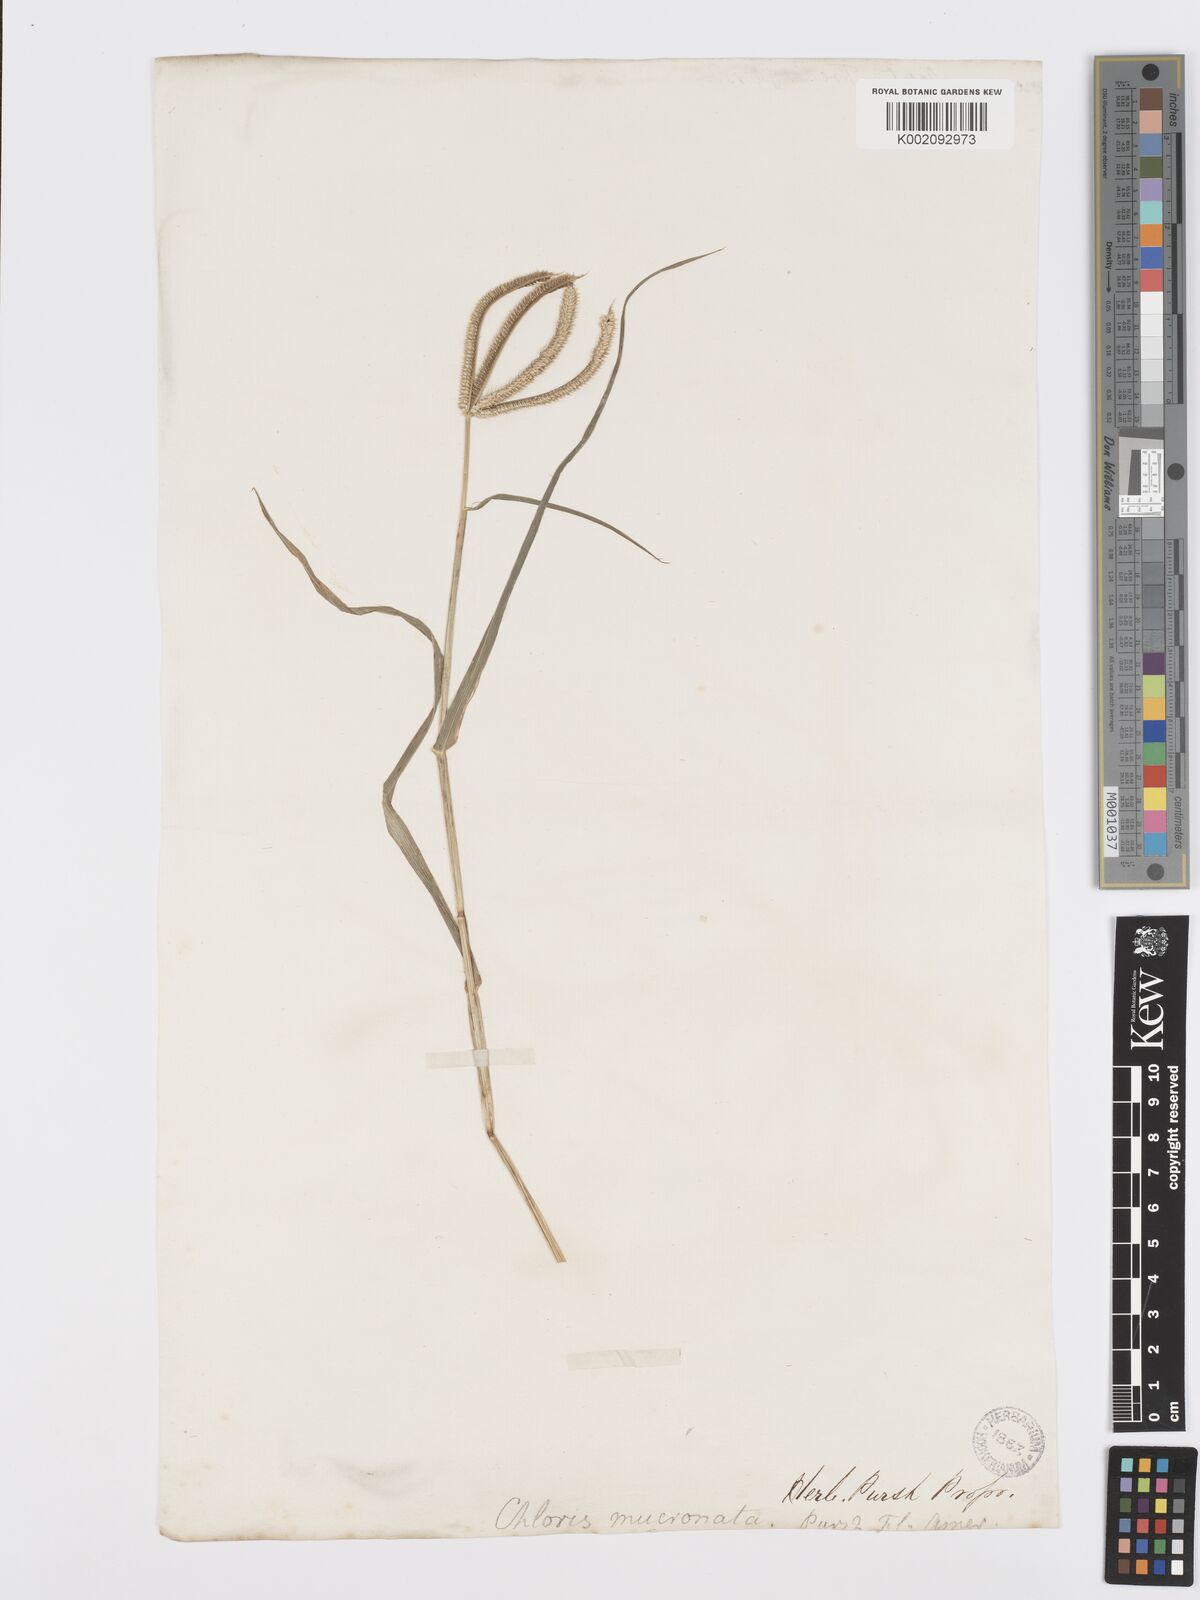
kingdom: Plantae
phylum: Tracheophyta
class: Liliopsida
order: Poales
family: Poaceae
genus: Dactyloctenium
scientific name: Dactyloctenium aegyptium
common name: Egyptian grass
